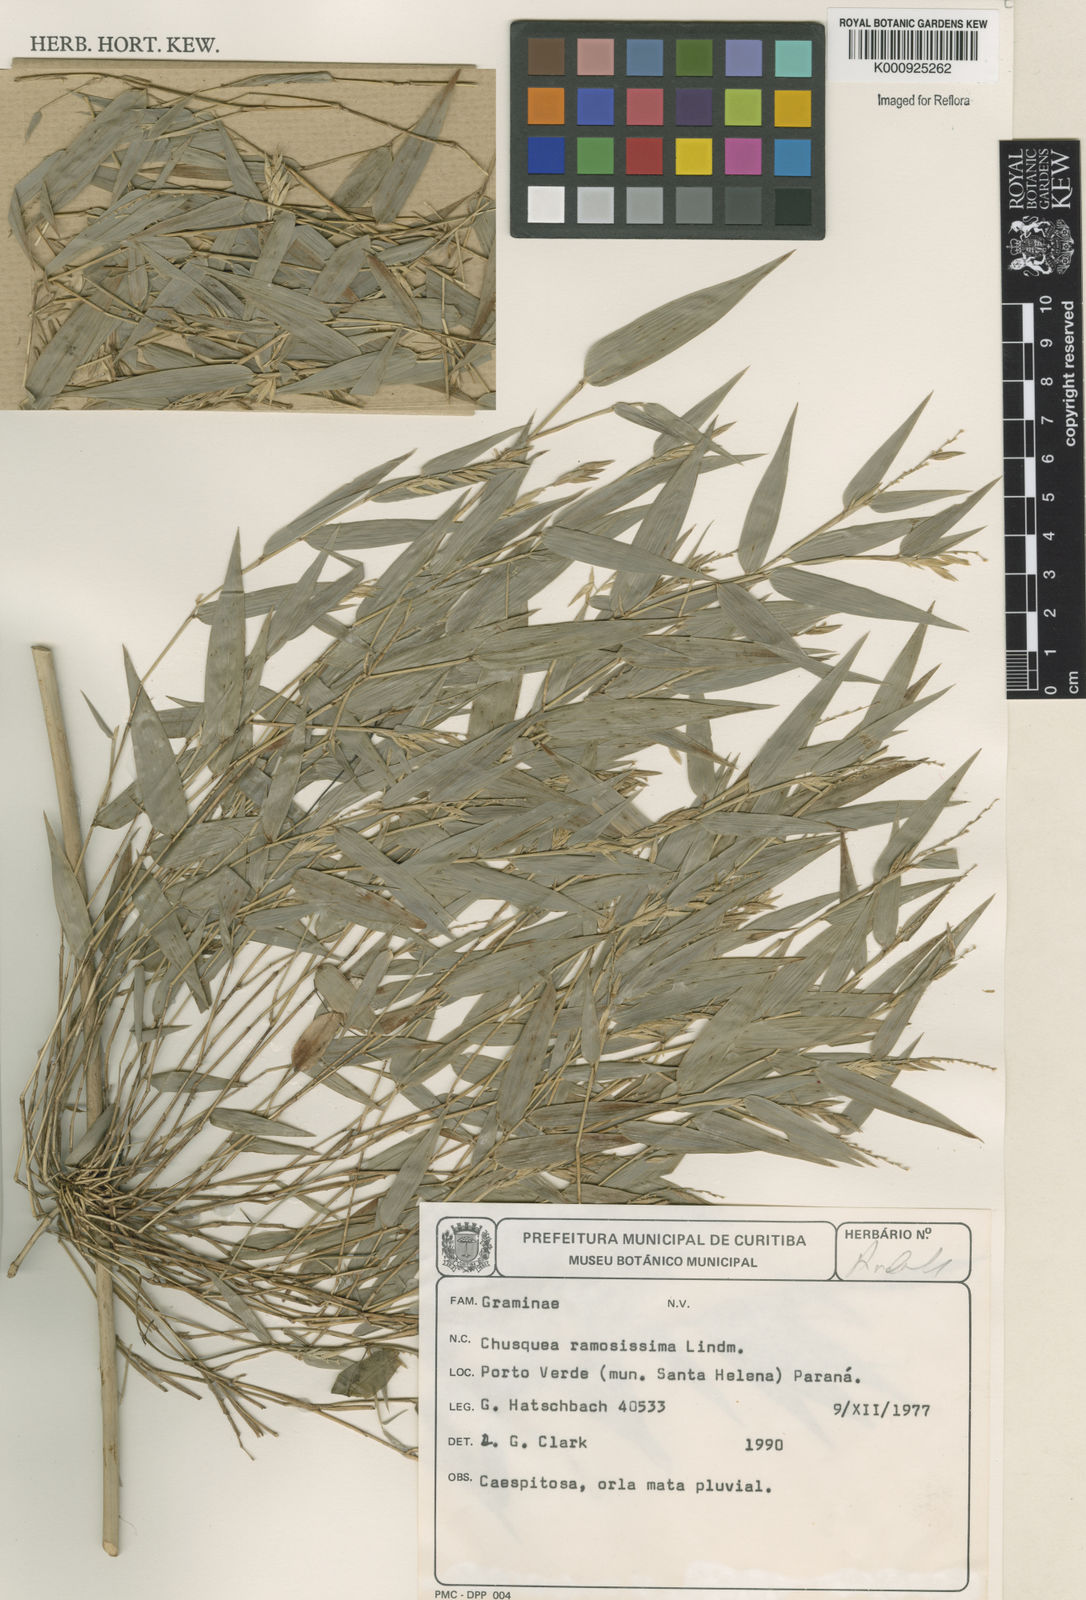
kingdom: Plantae
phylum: Tracheophyta
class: Liliopsida
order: Poales
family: Poaceae
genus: Chusquea
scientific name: Chusquea ramosissima
